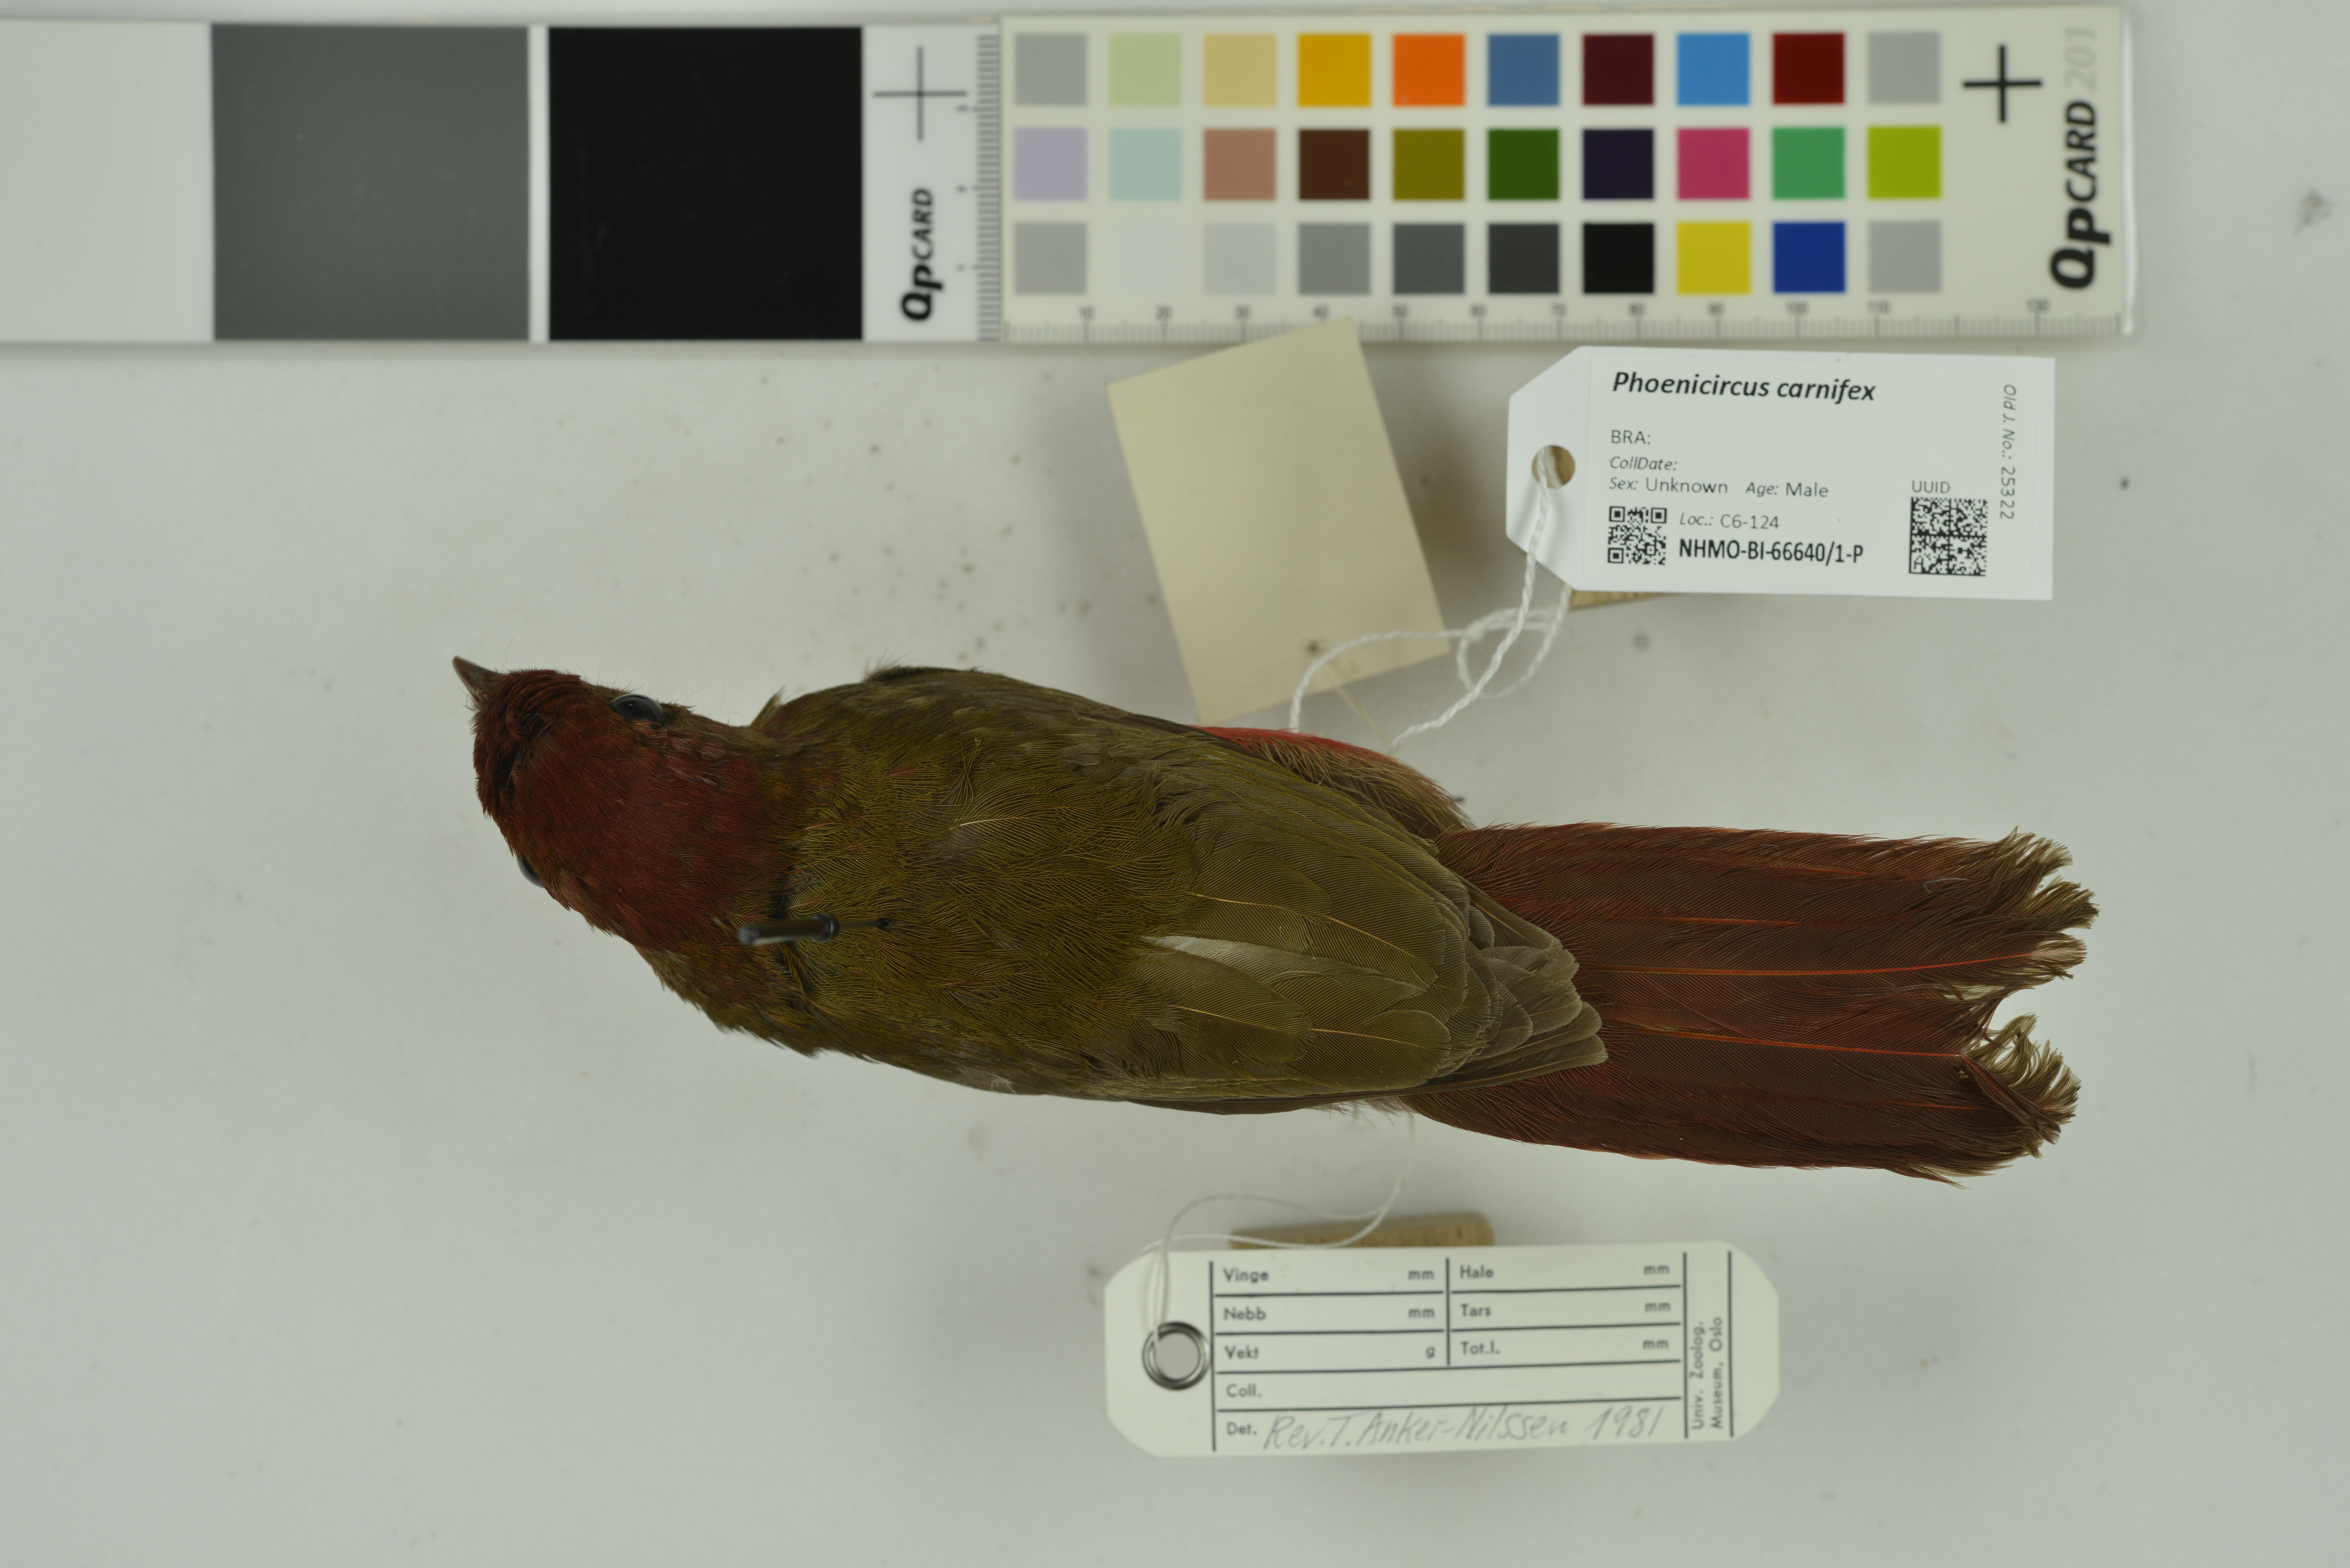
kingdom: Animalia
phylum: Chordata
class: Aves
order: Passeriformes
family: Cotingidae
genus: Phoenicircus
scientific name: Phoenicircus carnifex
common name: Guianan red cotinga
